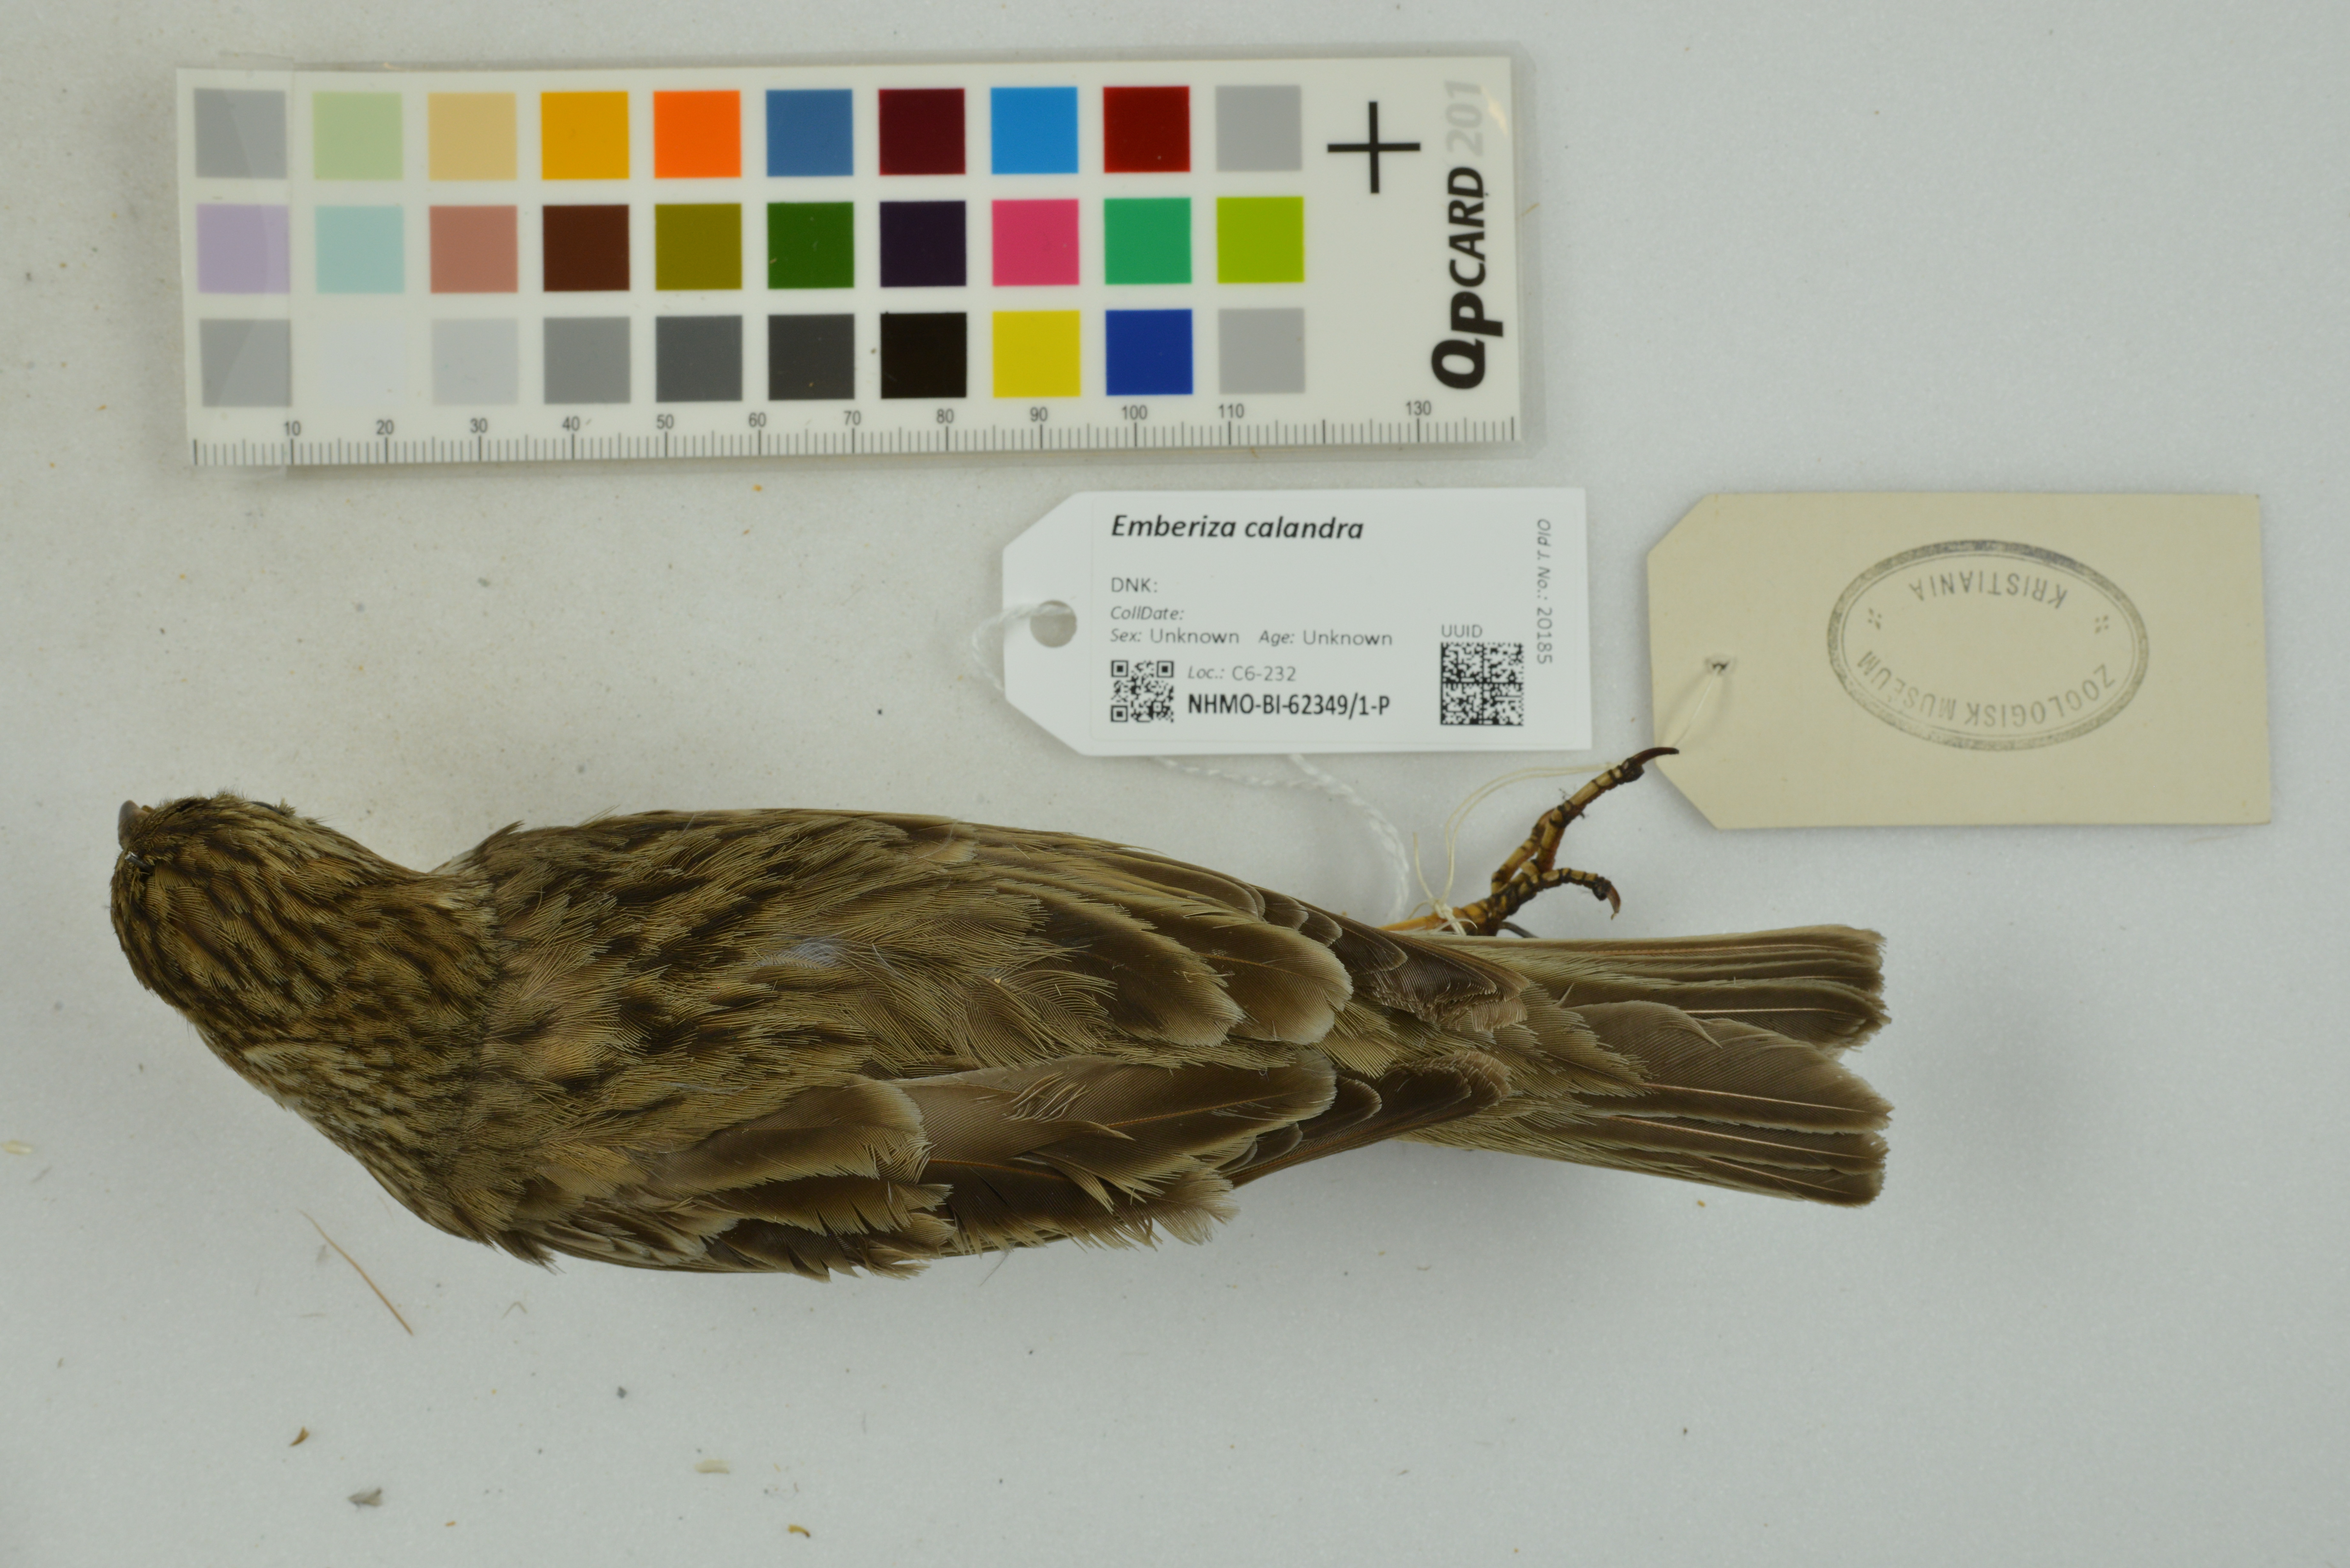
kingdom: Animalia
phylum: Chordata
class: Aves
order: Passeriformes
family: Emberizidae
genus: Emberiza
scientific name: Emberiza calandra
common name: Corn bunting
